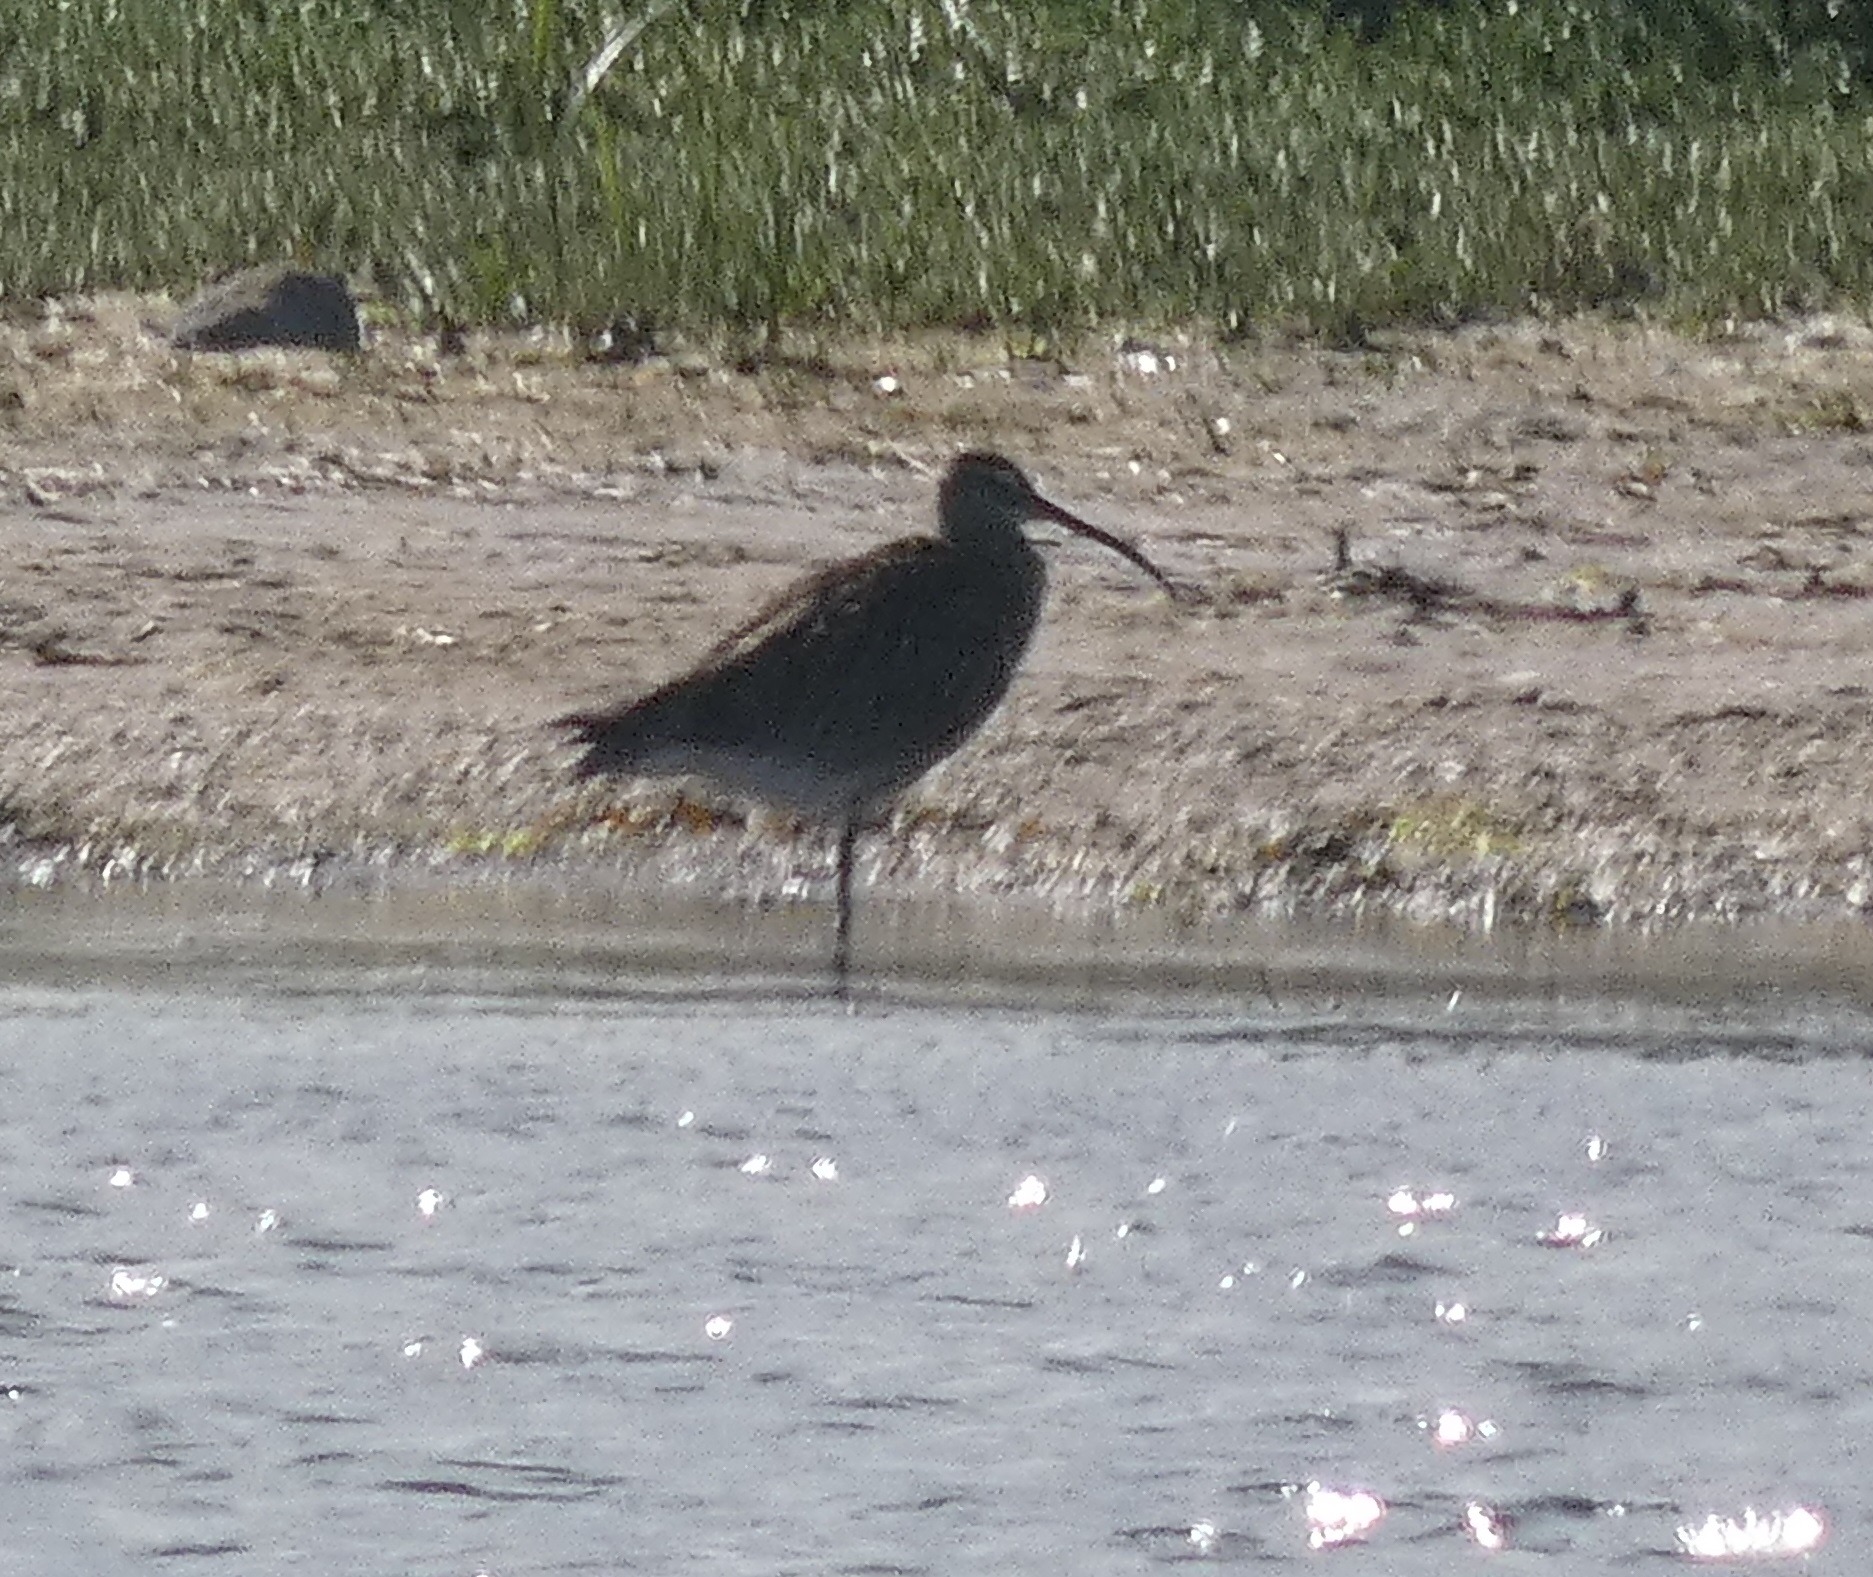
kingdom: Animalia
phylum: Chordata
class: Aves
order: Charadriiformes
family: Scolopacidae
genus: Numenius
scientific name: Numenius arquata
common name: Storspove
